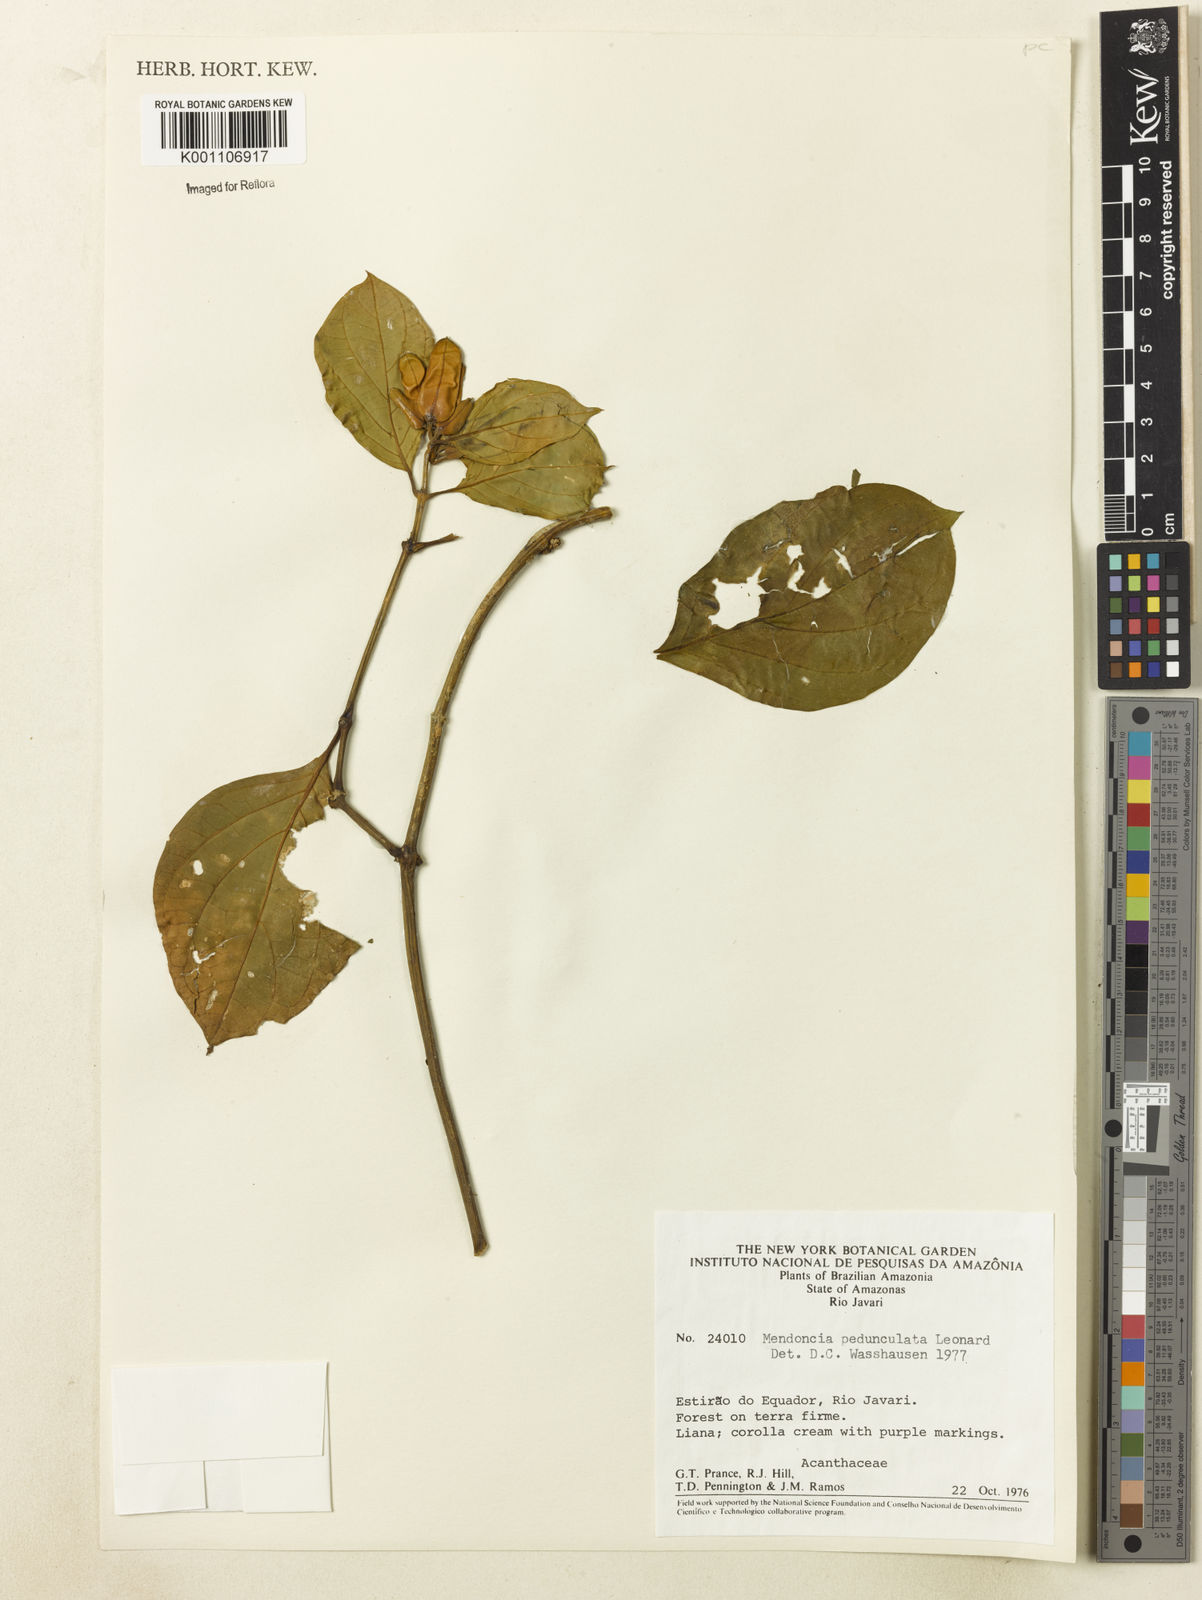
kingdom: Plantae
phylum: Tracheophyta
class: Magnoliopsida
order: Lamiales
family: Acanthaceae
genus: Mendoncia
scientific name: Mendoncia pedunculata
